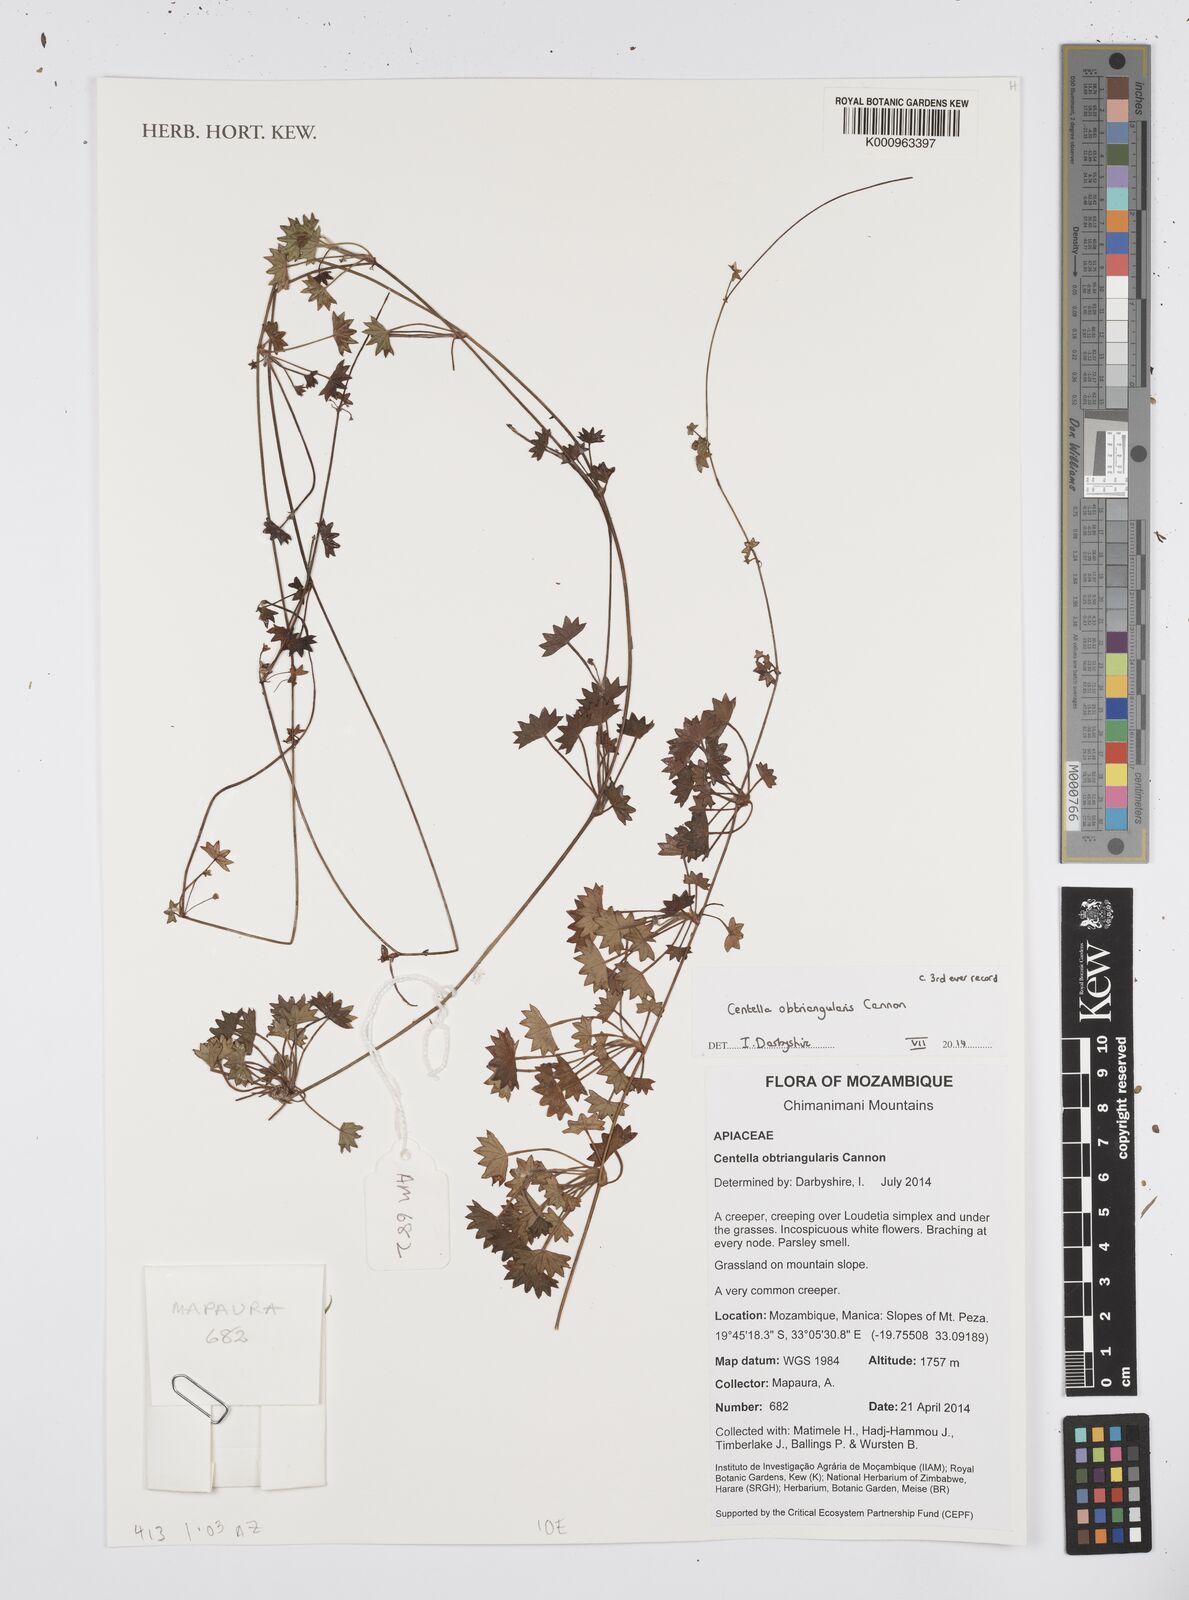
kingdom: Plantae
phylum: Tracheophyta
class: Magnoliopsida
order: Apiales
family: Apiaceae
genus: Centella
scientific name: Centella obtriangularis
